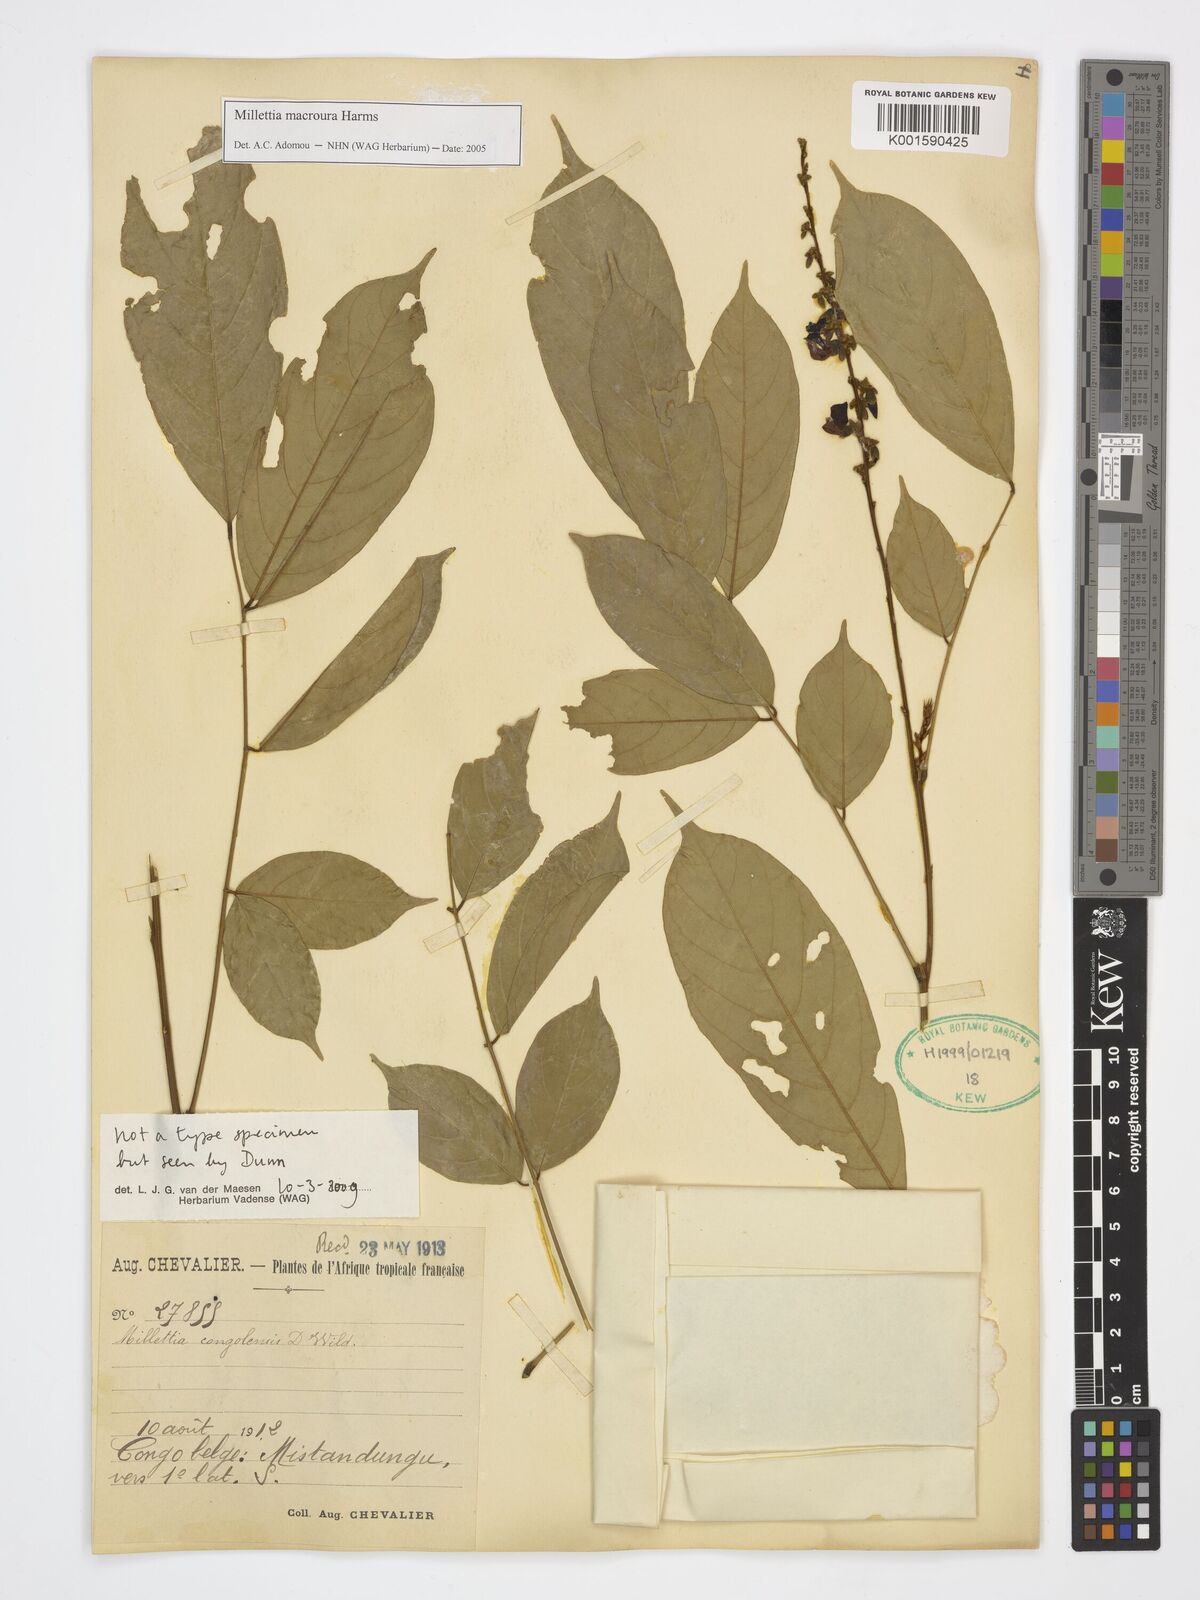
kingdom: Plantae
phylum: Tracheophyta
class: Magnoliopsida
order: Fabales
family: Fabaceae
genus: Millettia
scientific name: Millettia macroura
